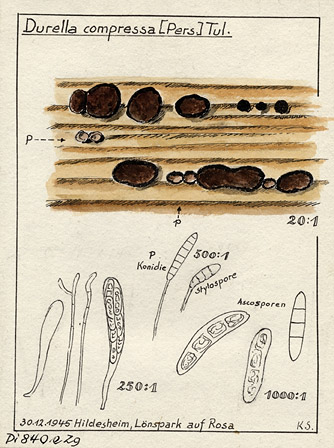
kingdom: Fungi
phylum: Ascomycota
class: Dothideomycetes
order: Patellariales
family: Patellariaceae
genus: Patellaria
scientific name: Patellaria compressa
